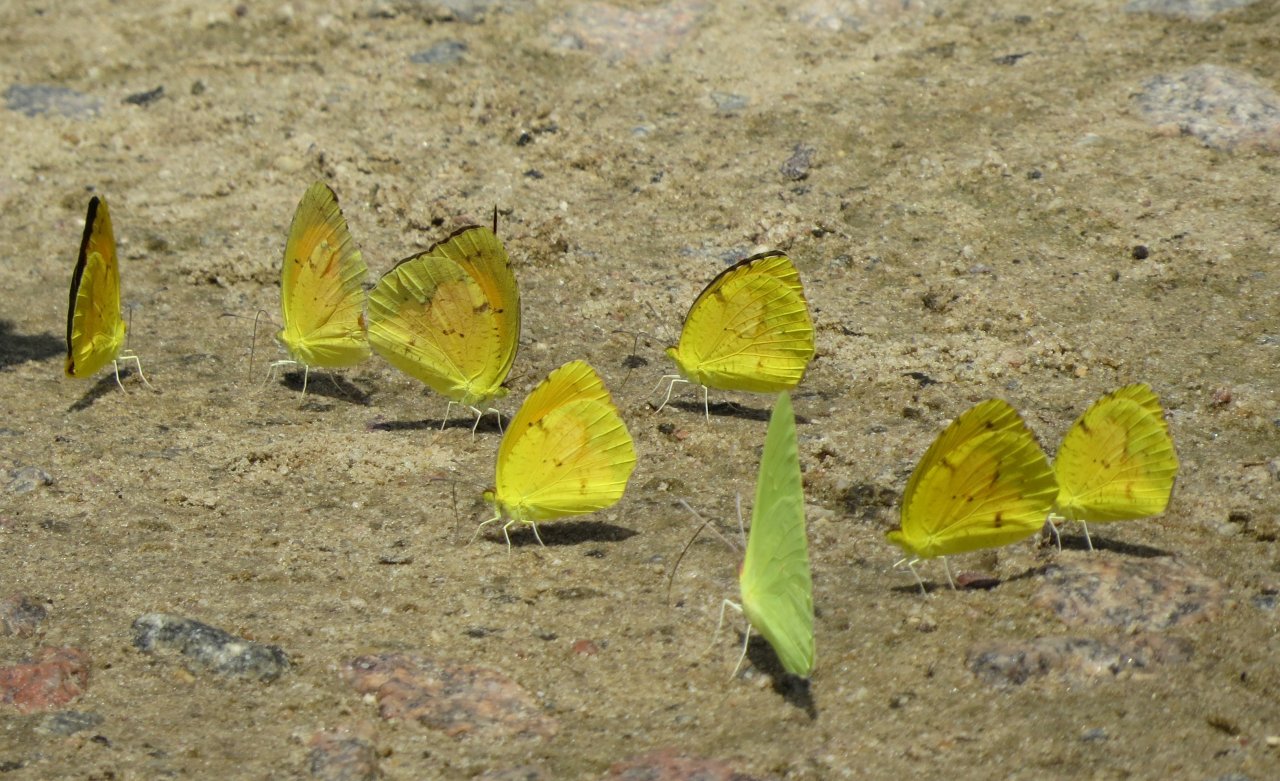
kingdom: Animalia
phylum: Arthropoda
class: Insecta
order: Lepidoptera
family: Pieridae
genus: Abaeis
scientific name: Abaeis nicippe
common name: Sleepy Orange
